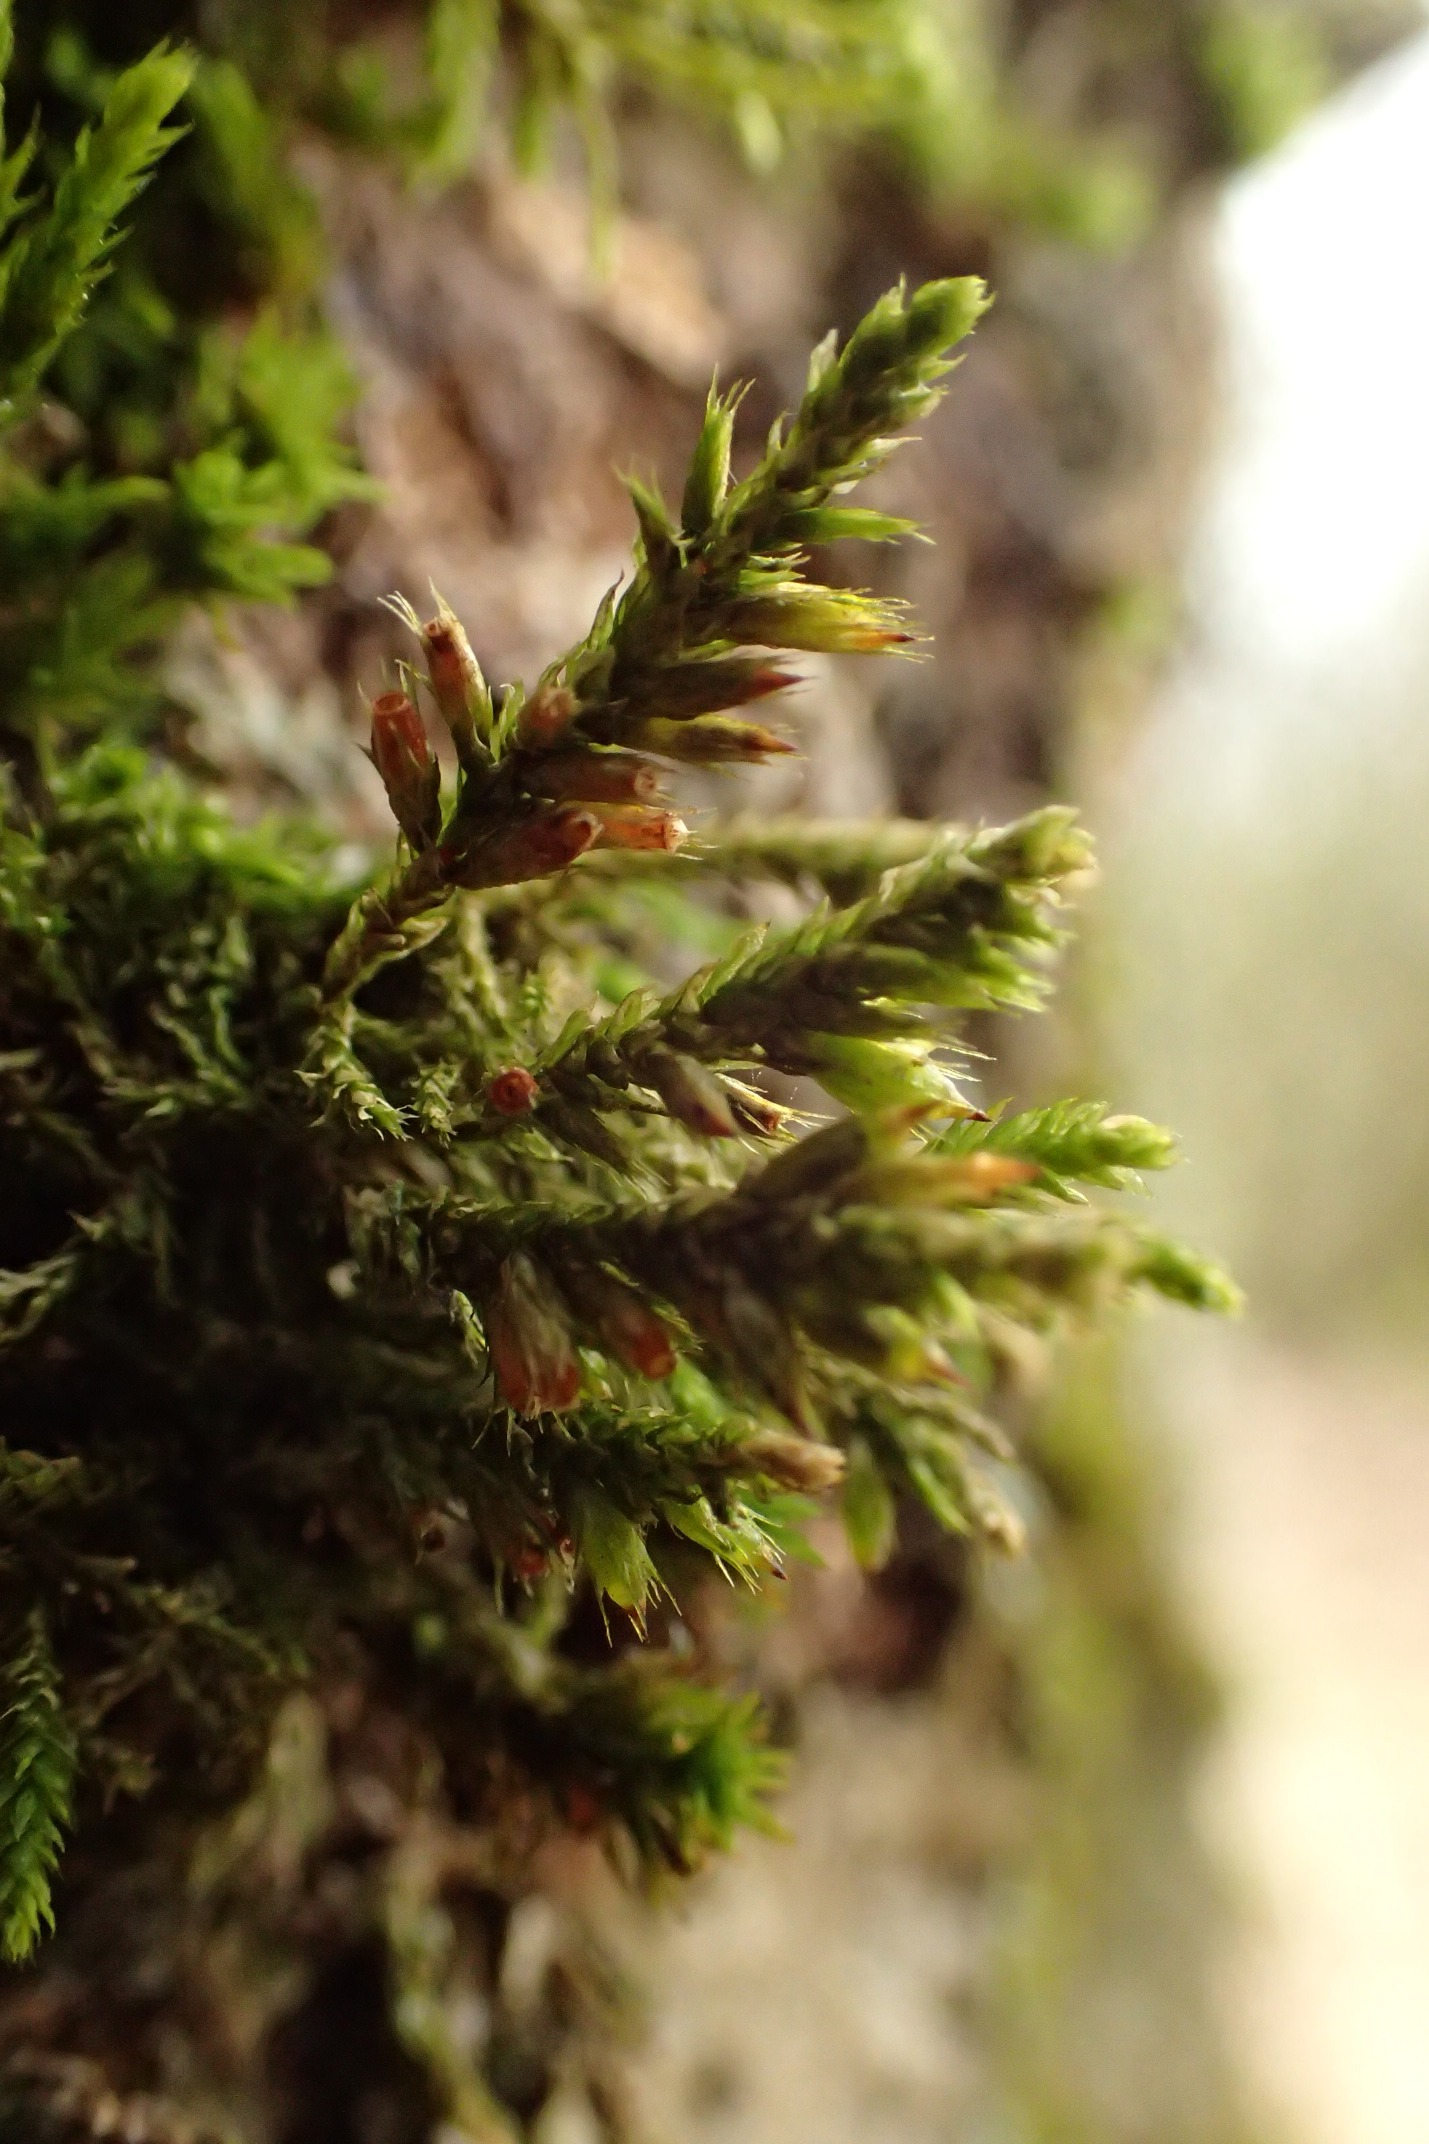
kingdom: Plantae
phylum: Bryophyta
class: Bryopsida
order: Hypnales
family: Cryphaeaceae
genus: Cryphaea
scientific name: Cryphaea heteromalla
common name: Bark-dækmos
